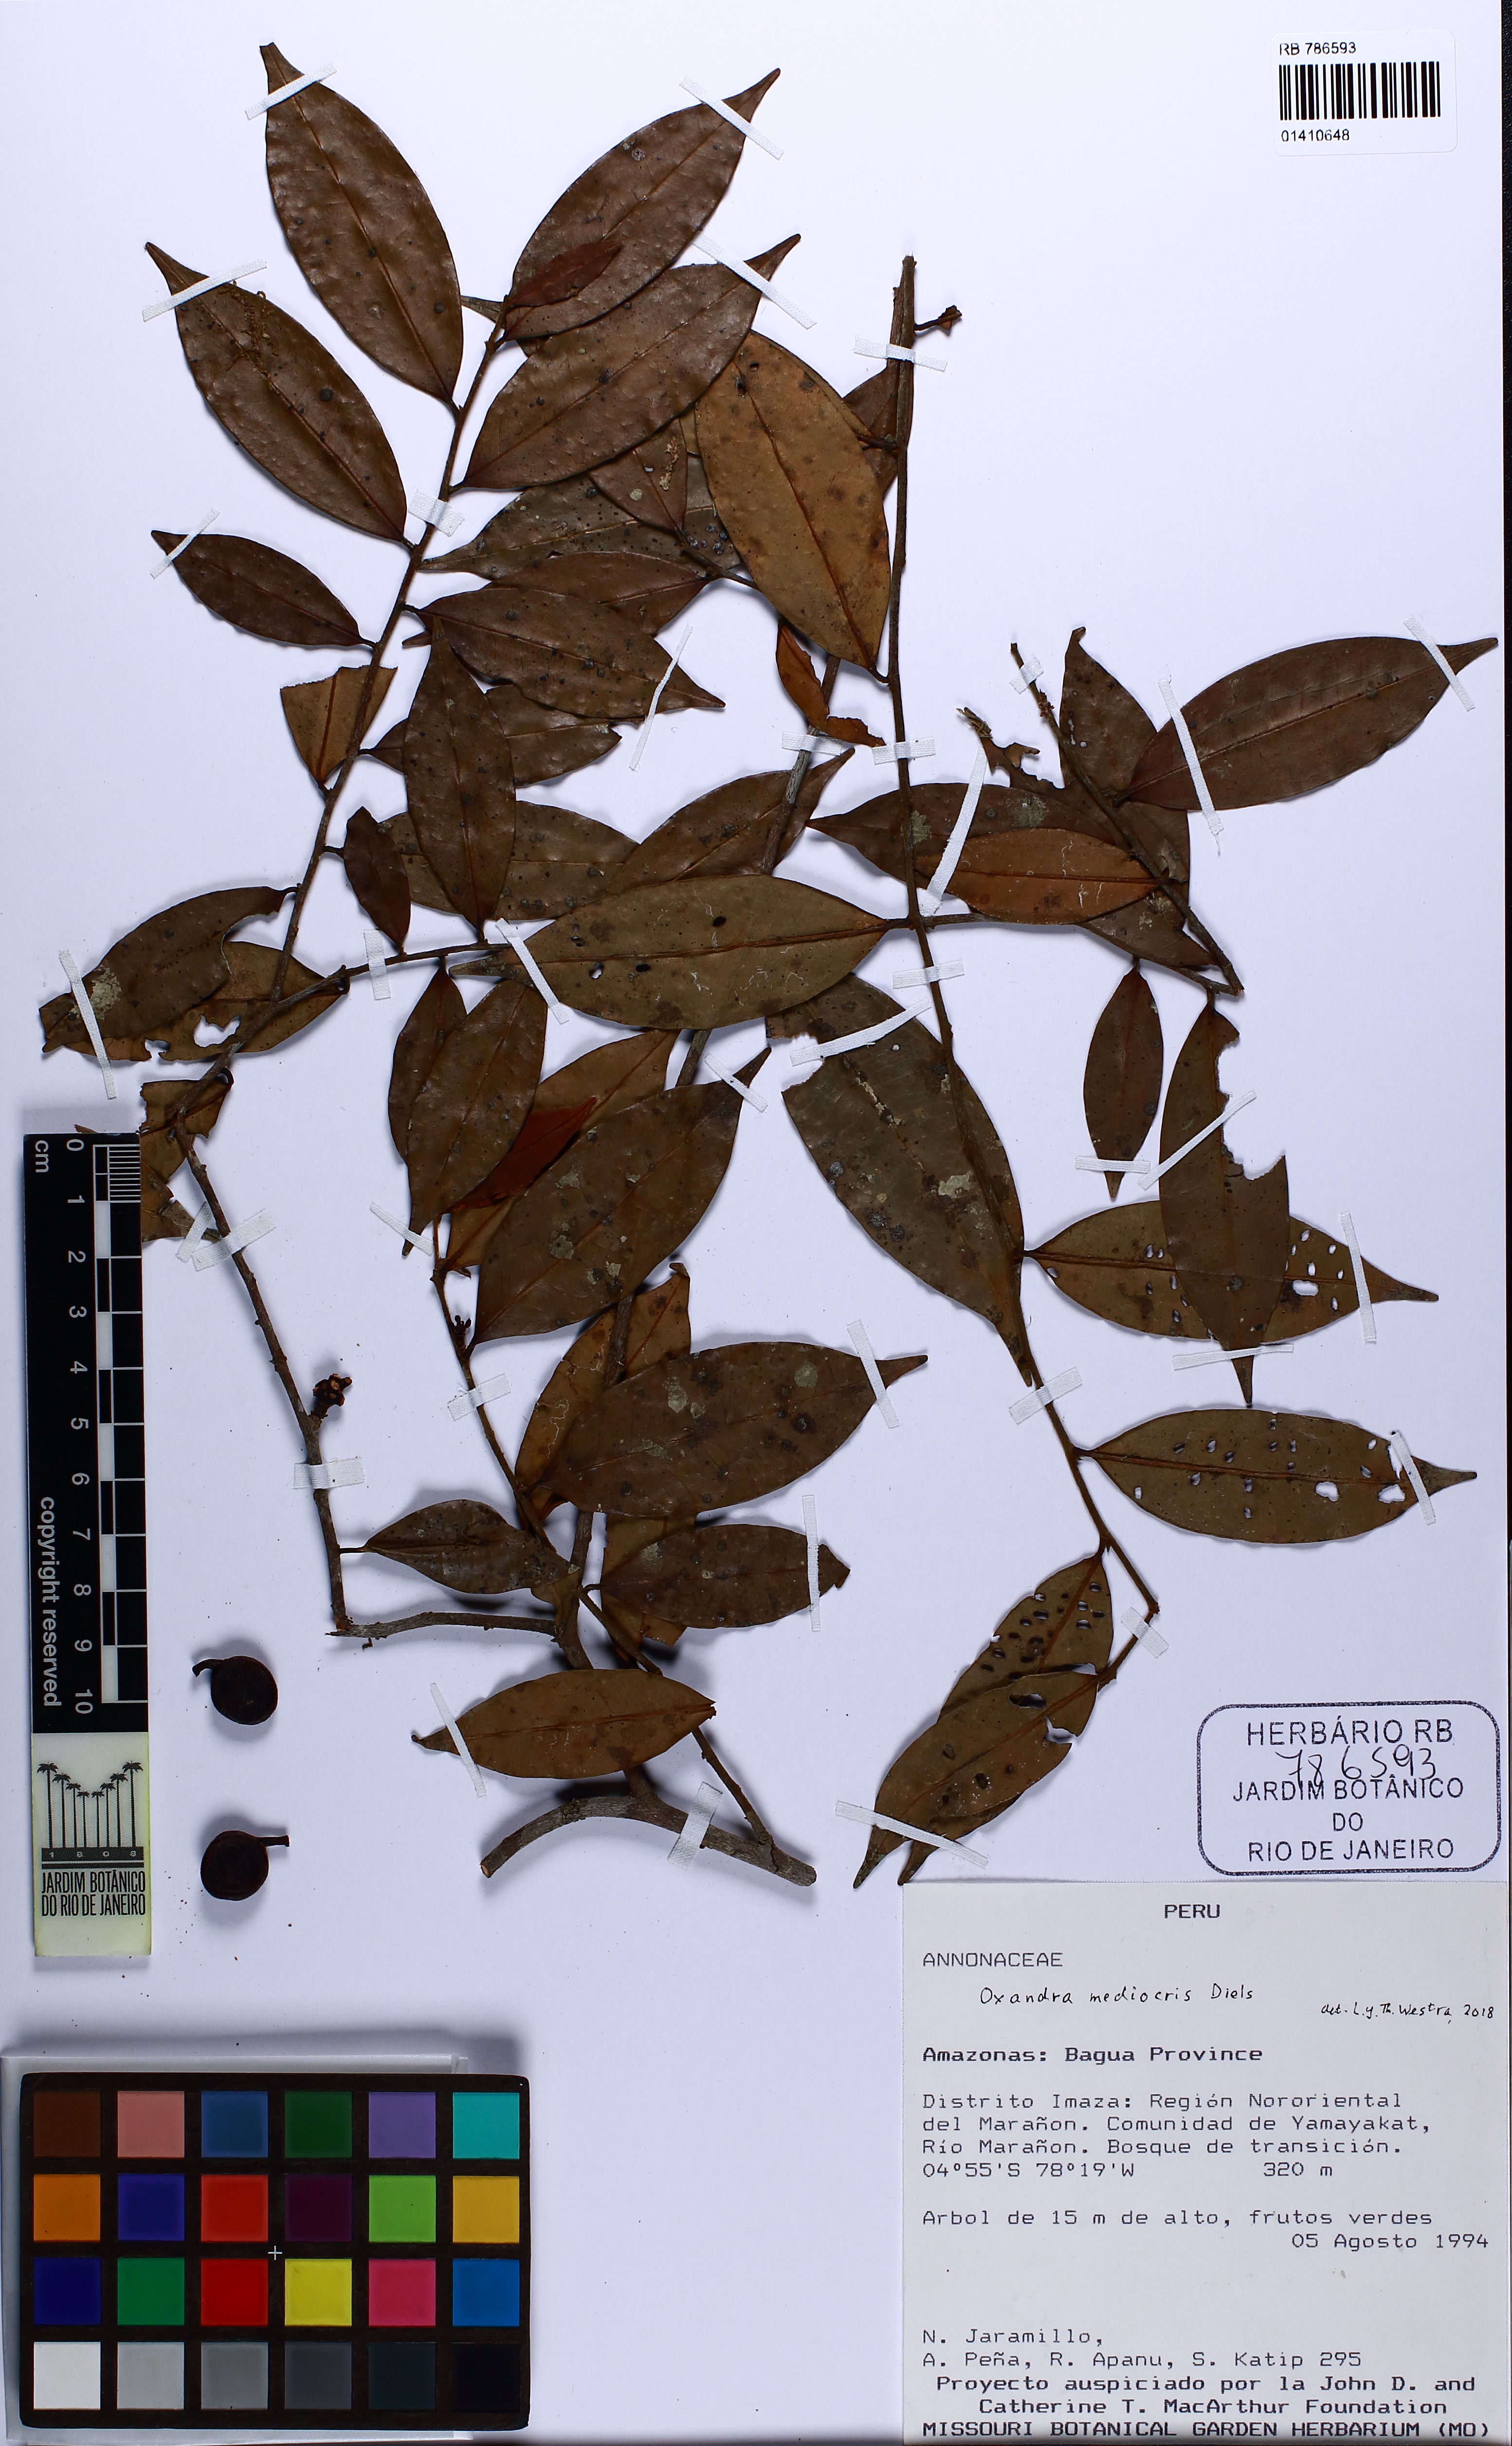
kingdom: Plantae
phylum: Tracheophyta
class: Magnoliopsida
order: Magnoliales
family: Annonaceae
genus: Oxandra
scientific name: Oxandra mediocris
